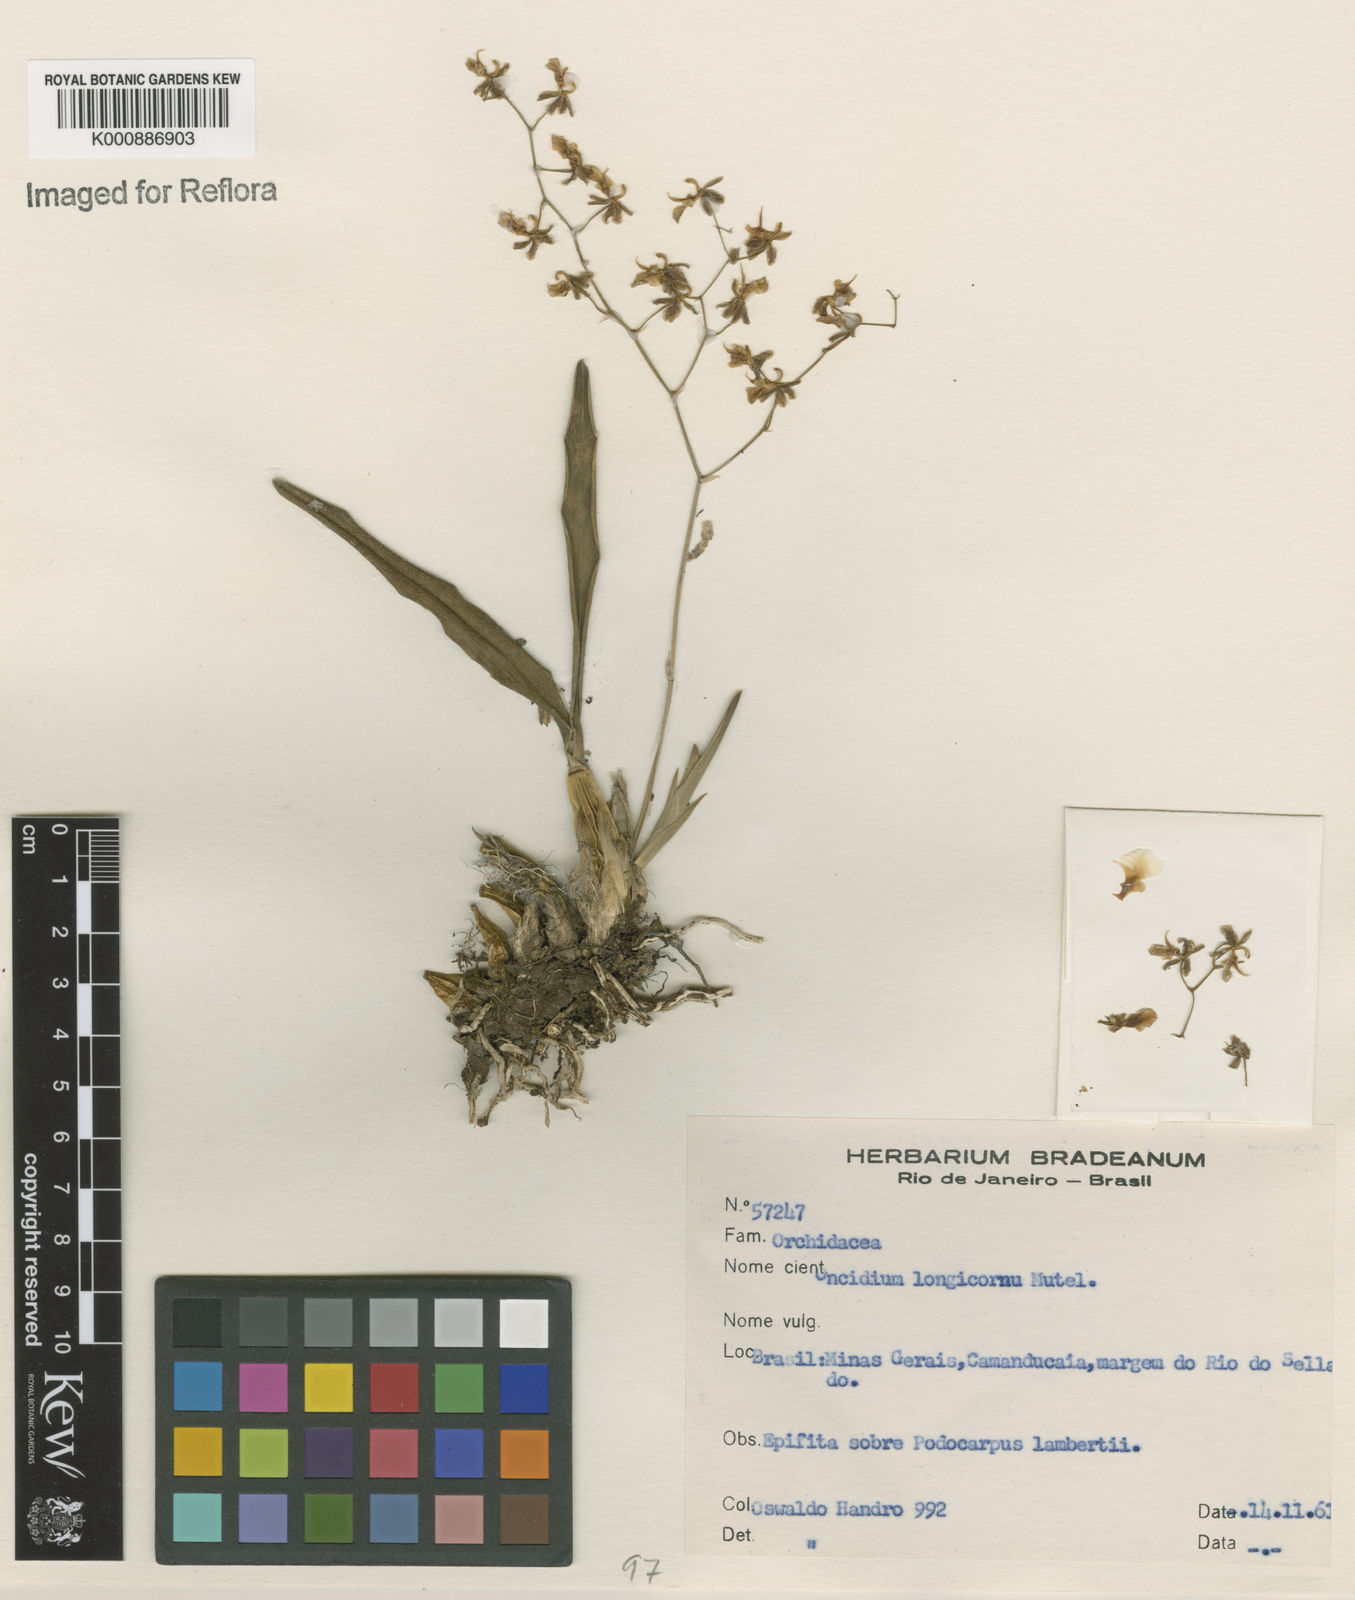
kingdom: Plantae
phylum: Tracheophyta
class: Liliopsida
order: Asparagales
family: Orchidaceae
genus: Gomesa
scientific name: Gomesa florida
